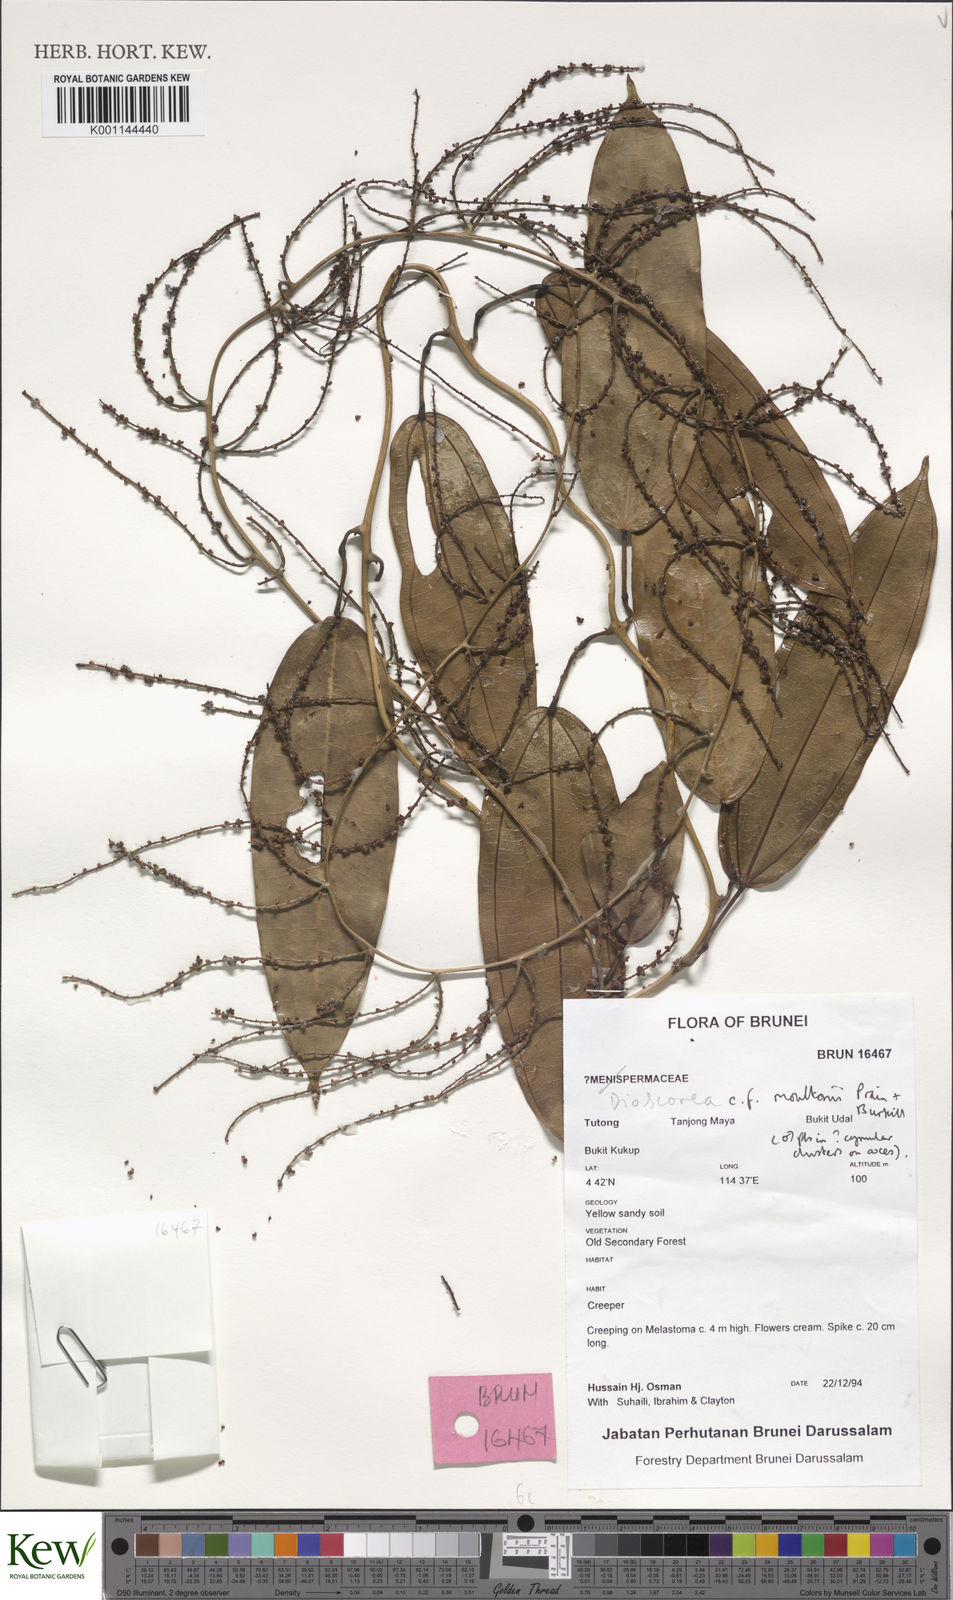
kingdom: Plantae
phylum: Tracheophyta
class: Liliopsida
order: Dioscoreales
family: Dioscoreaceae
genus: Dioscorea
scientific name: Dioscorea moultonii
